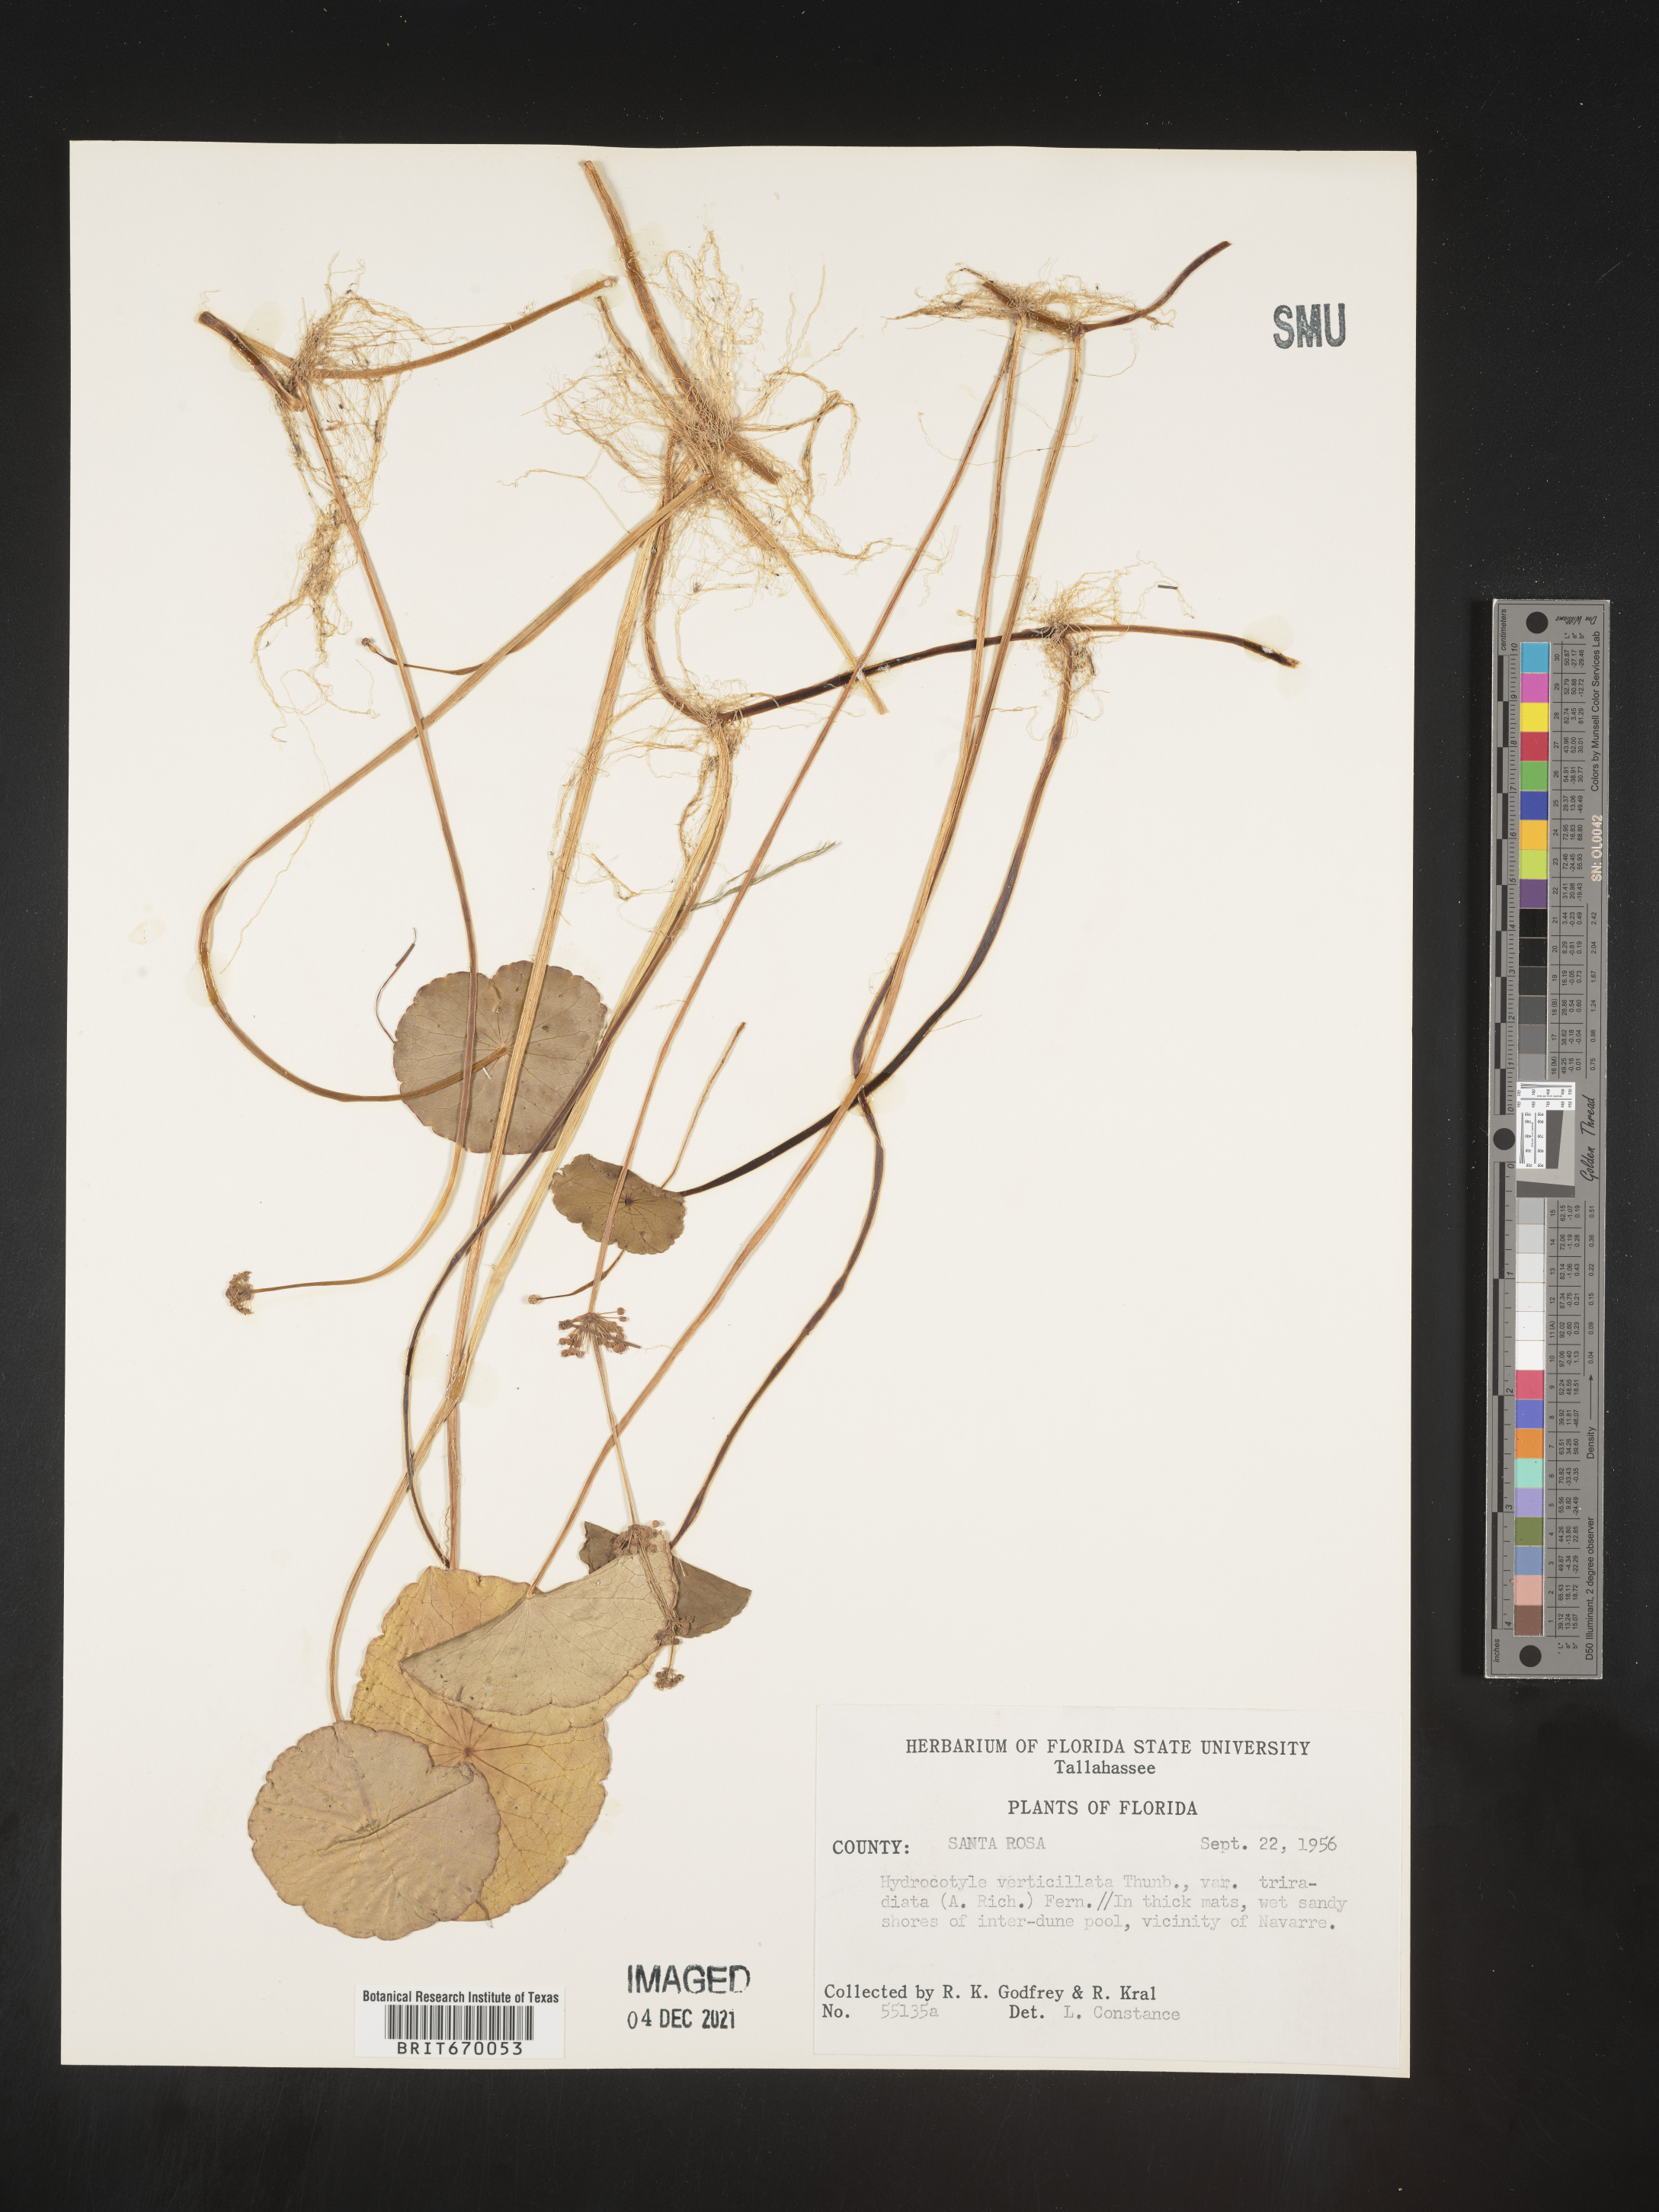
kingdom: Plantae
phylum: Tracheophyta
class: Magnoliopsida
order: Apiales
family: Araliaceae
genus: Hydrocotyle
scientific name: Hydrocotyle verticillata
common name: Whorled marshpennywort
